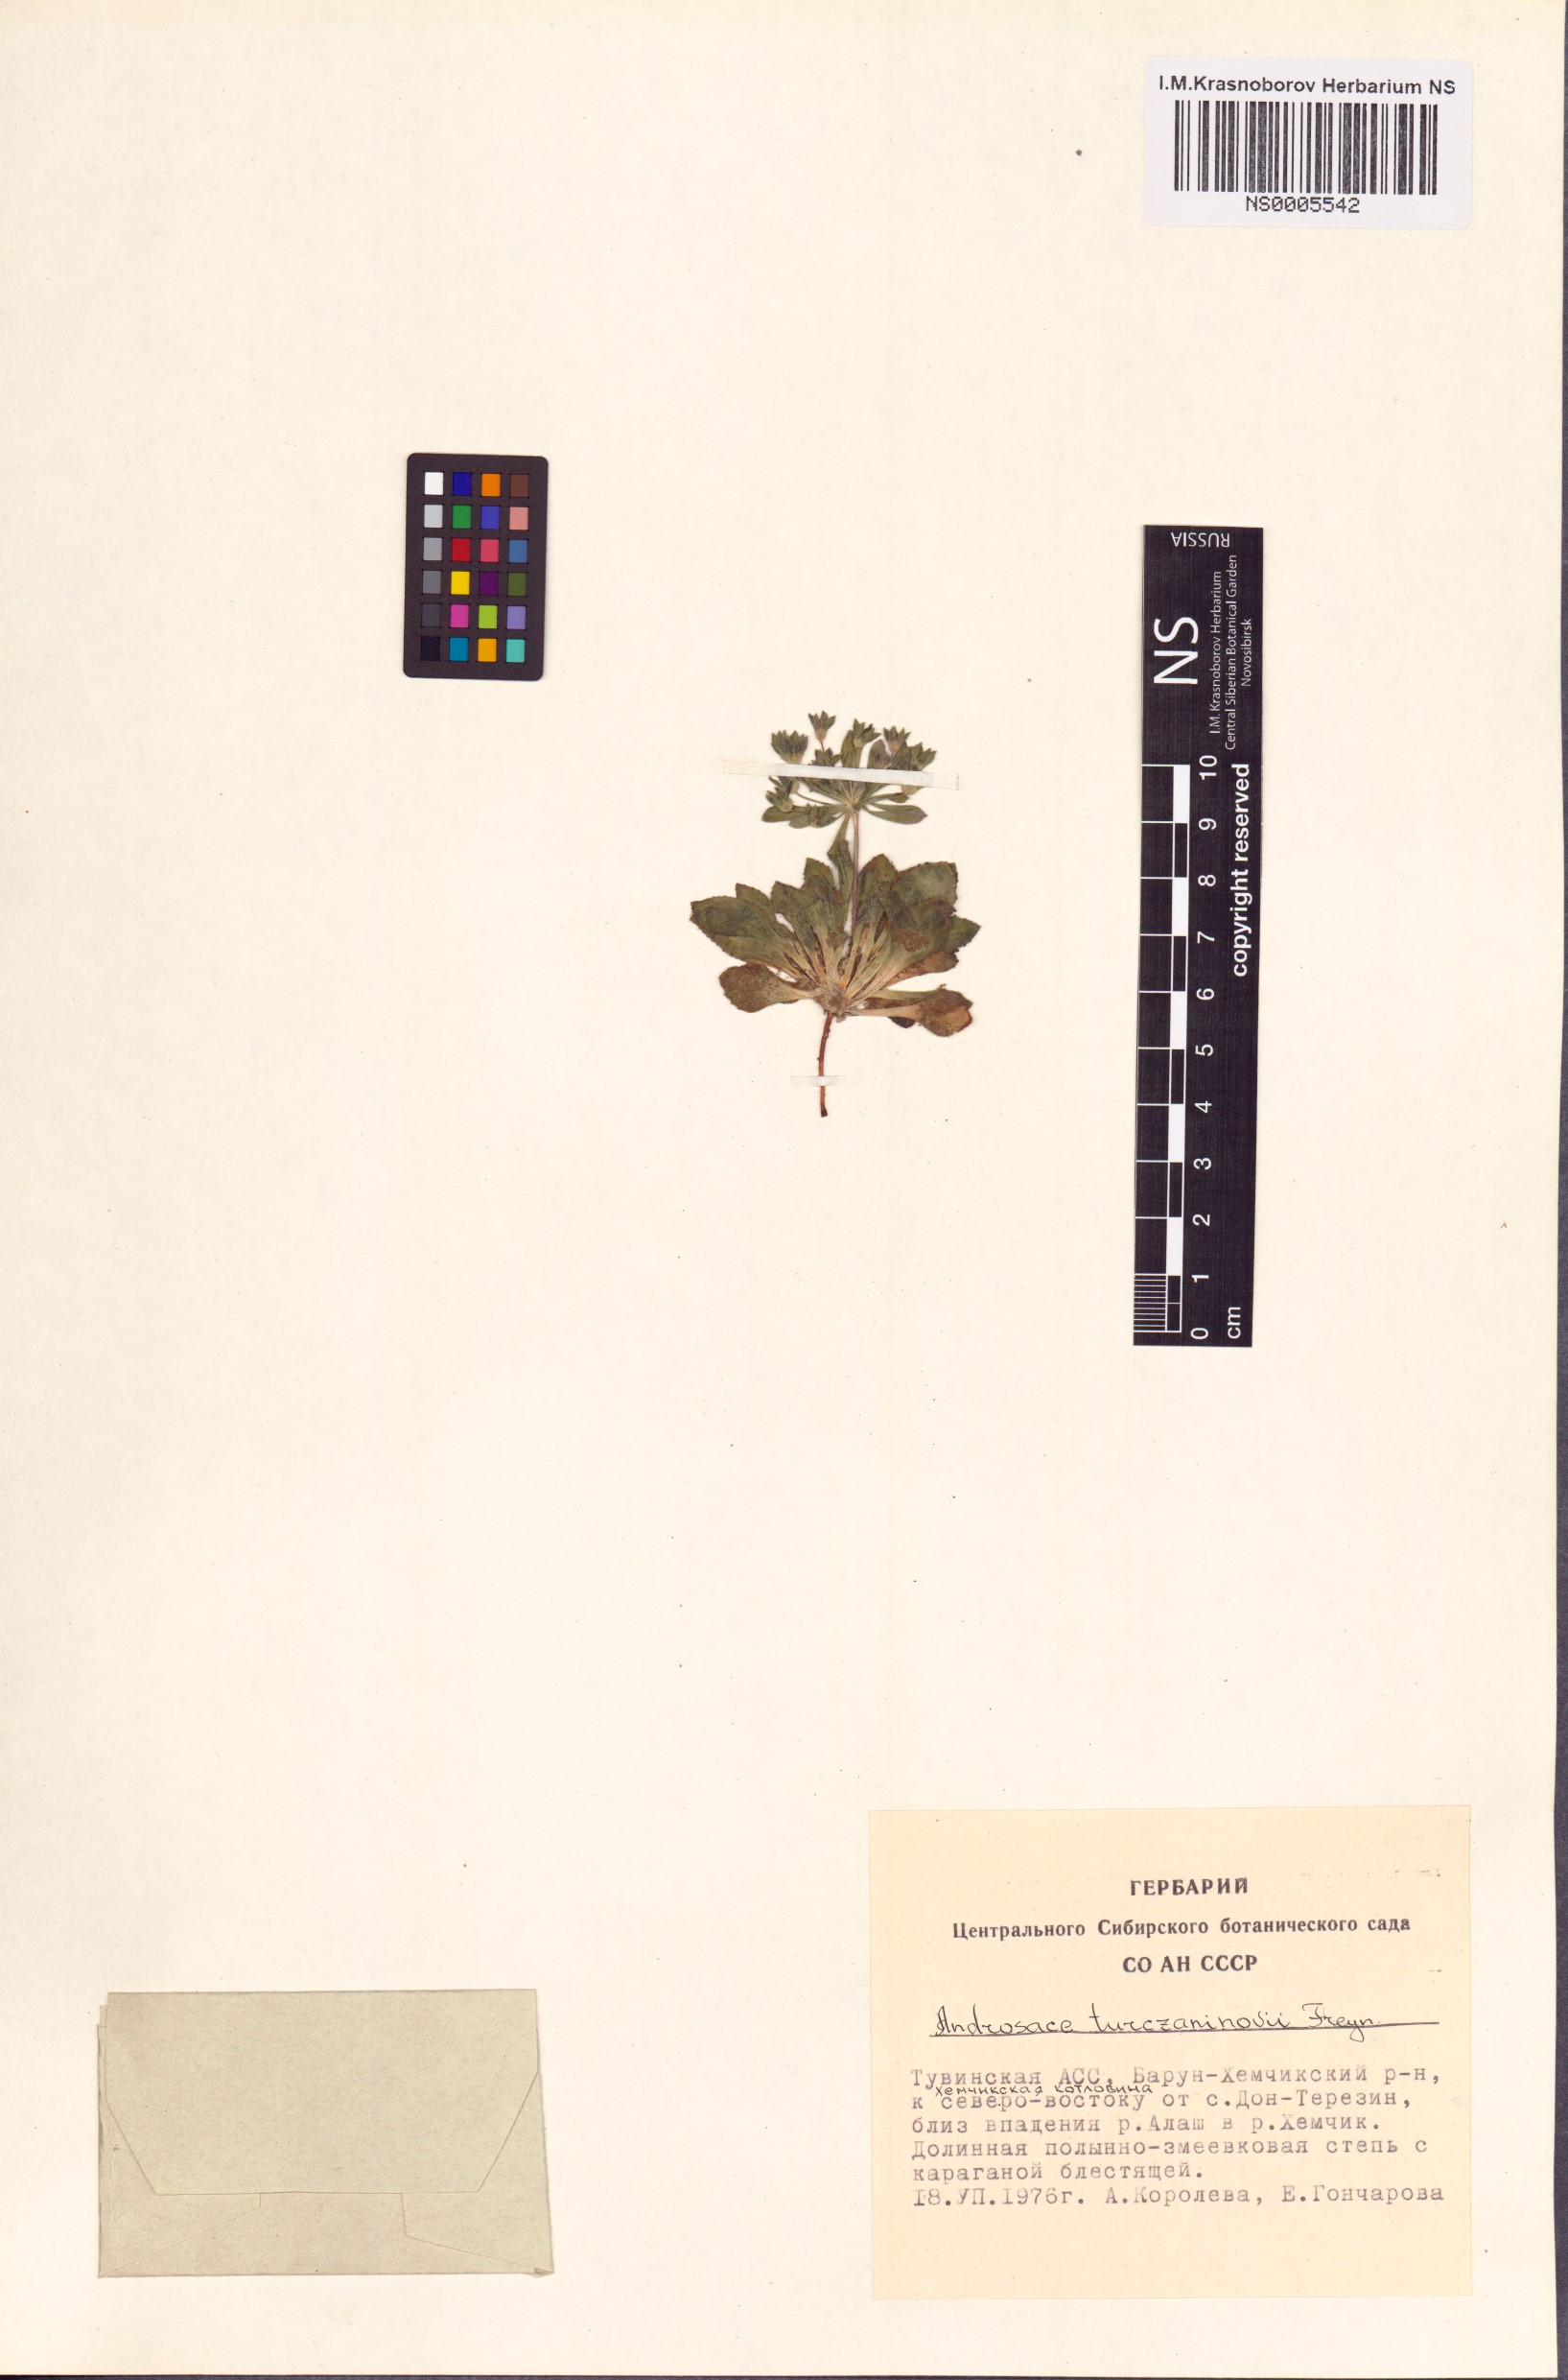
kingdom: Plantae
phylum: Tracheophyta
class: Magnoliopsida
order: Ericales
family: Primulaceae
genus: Androsace
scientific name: Androsace maxima
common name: Annual androsace
